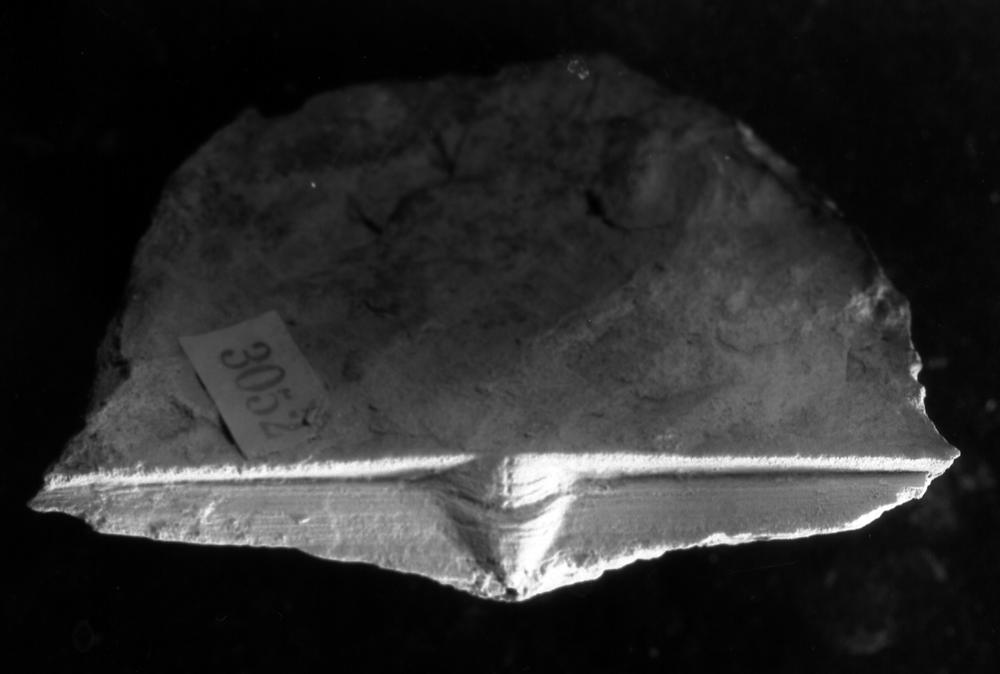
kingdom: Animalia
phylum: Brachiopoda
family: Strophomenidae
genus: Leptaena
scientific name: Leptaena cryptoides
